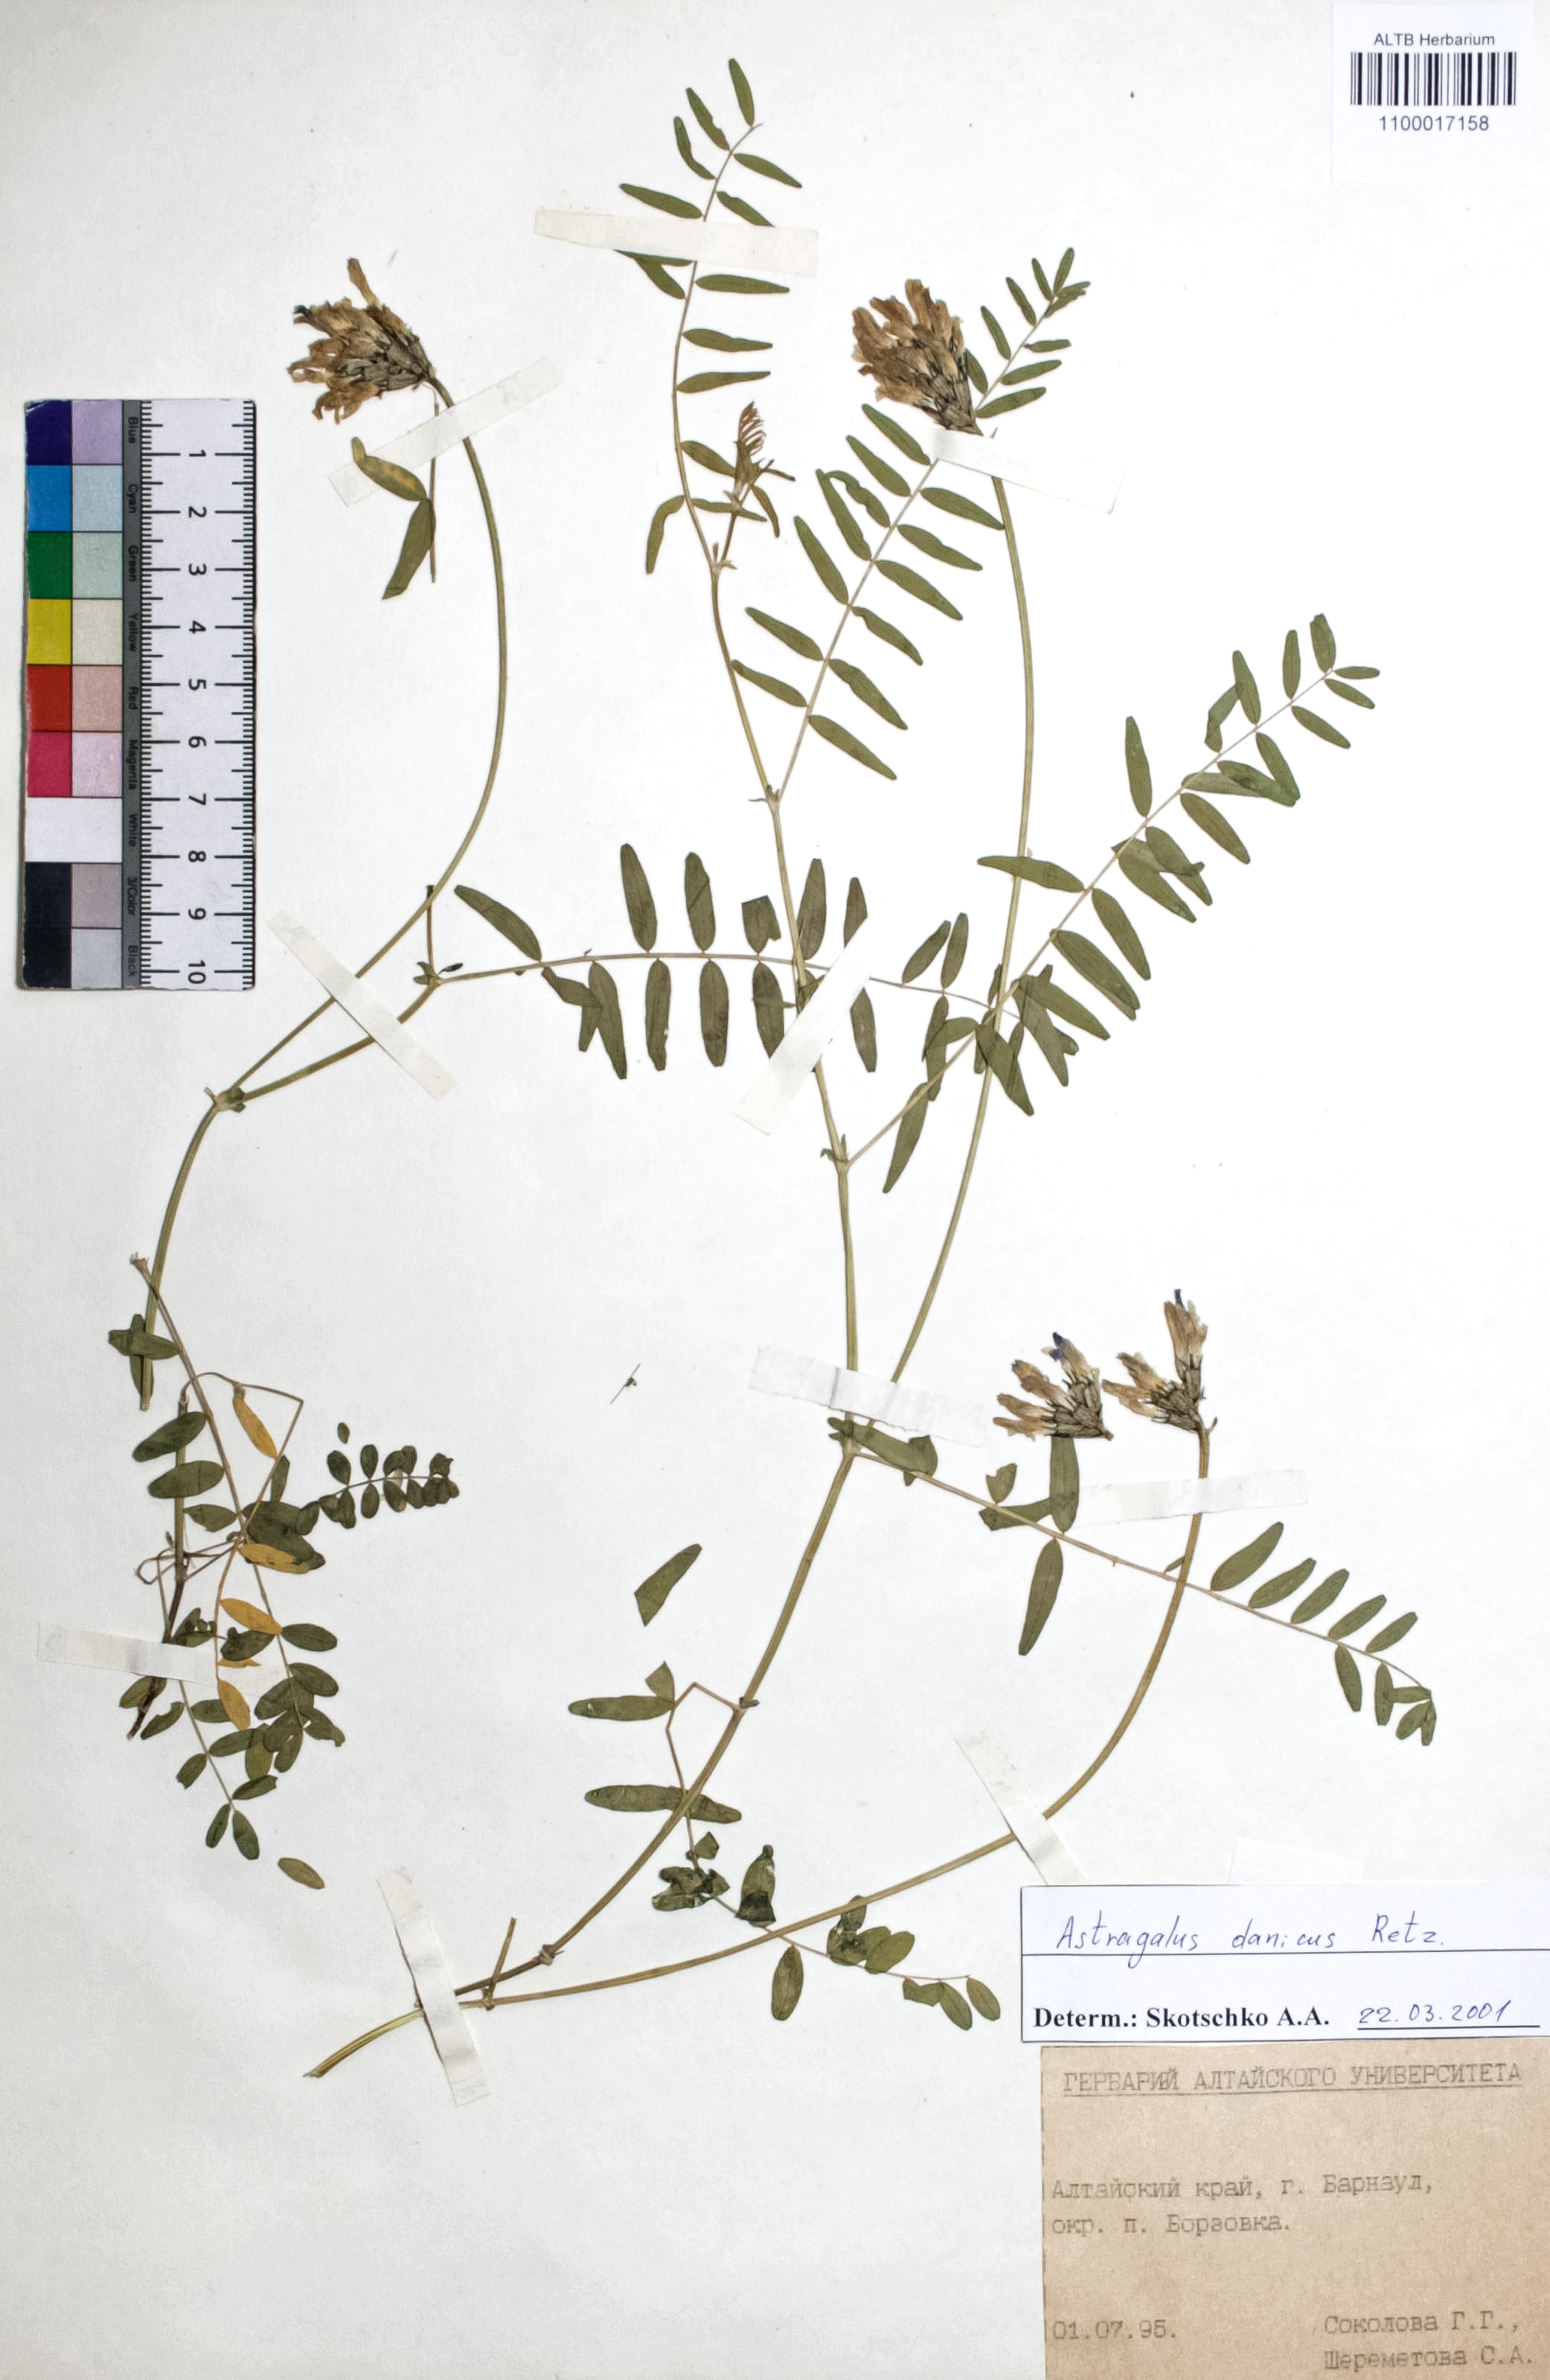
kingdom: Plantae
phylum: Tracheophyta
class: Magnoliopsida
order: Fabales
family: Fabaceae
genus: Astragalus
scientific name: Astragalus danicus
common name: Purple milk-vetch
